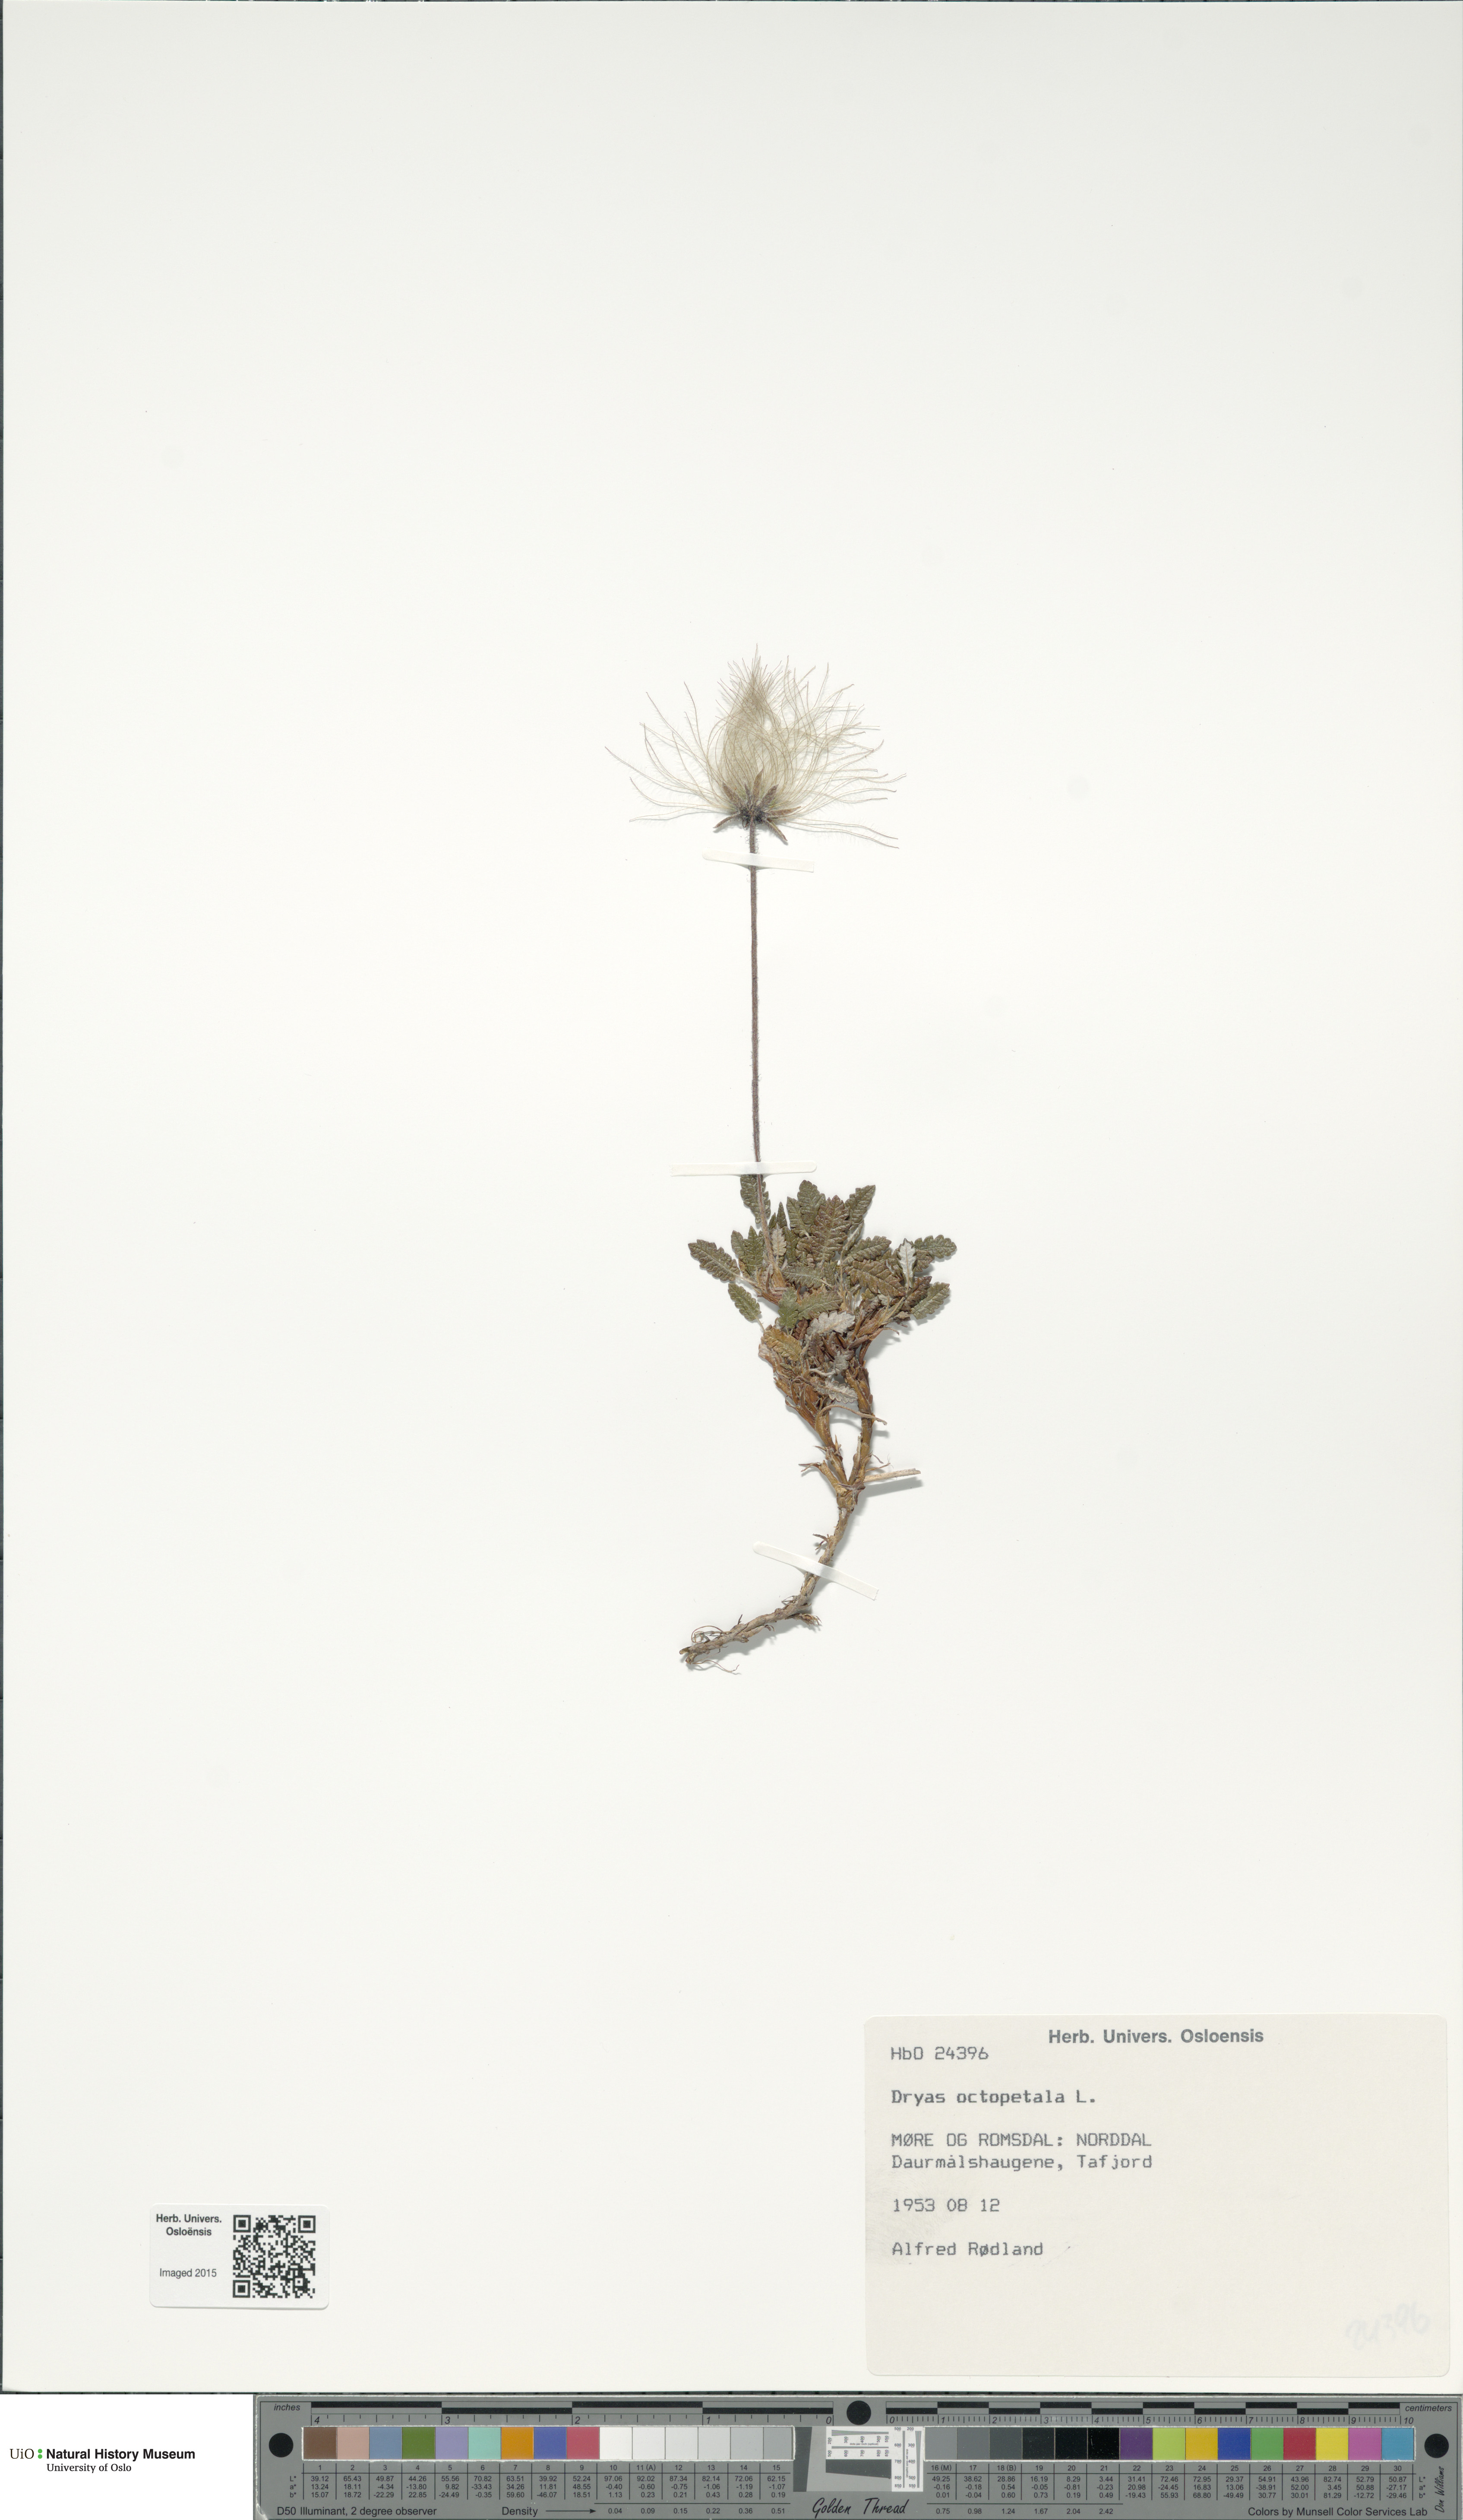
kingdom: Plantae
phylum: Tracheophyta
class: Magnoliopsida
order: Rosales
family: Rosaceae
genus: Dryas
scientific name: Dryas octopetala
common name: Eight-petal mountain-avens
